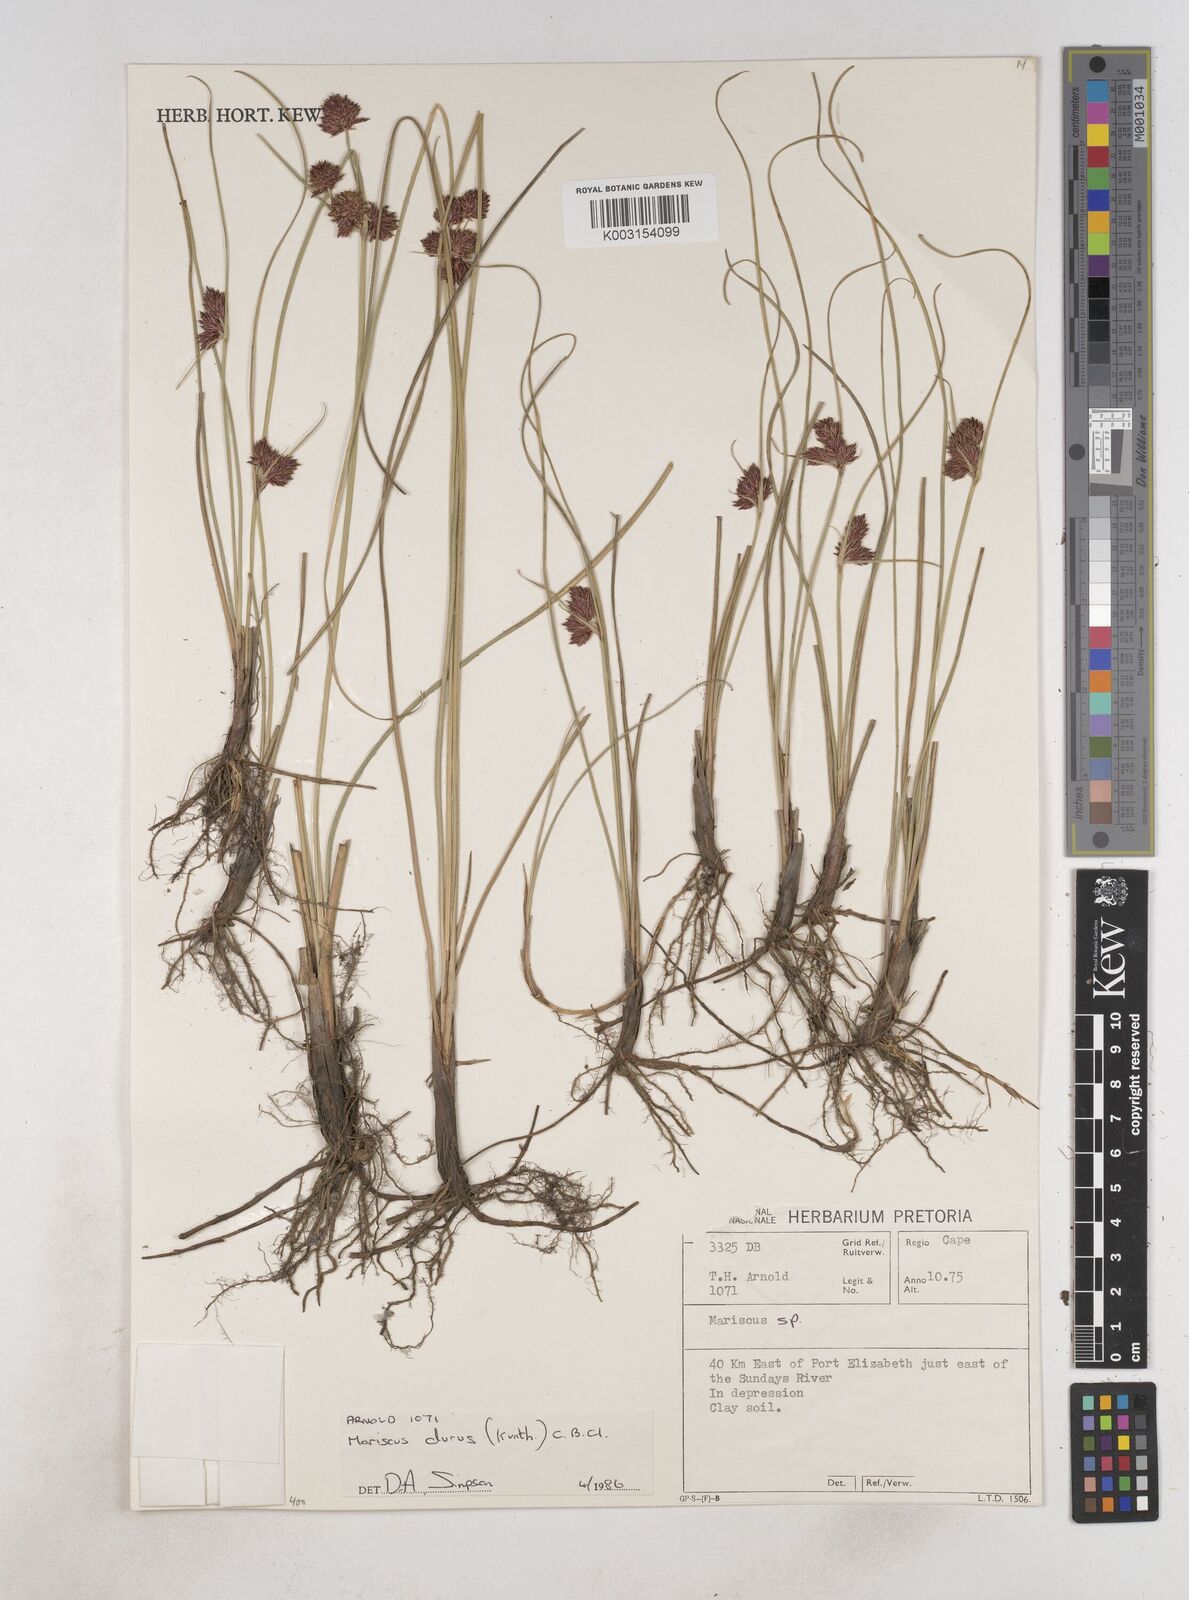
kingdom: Plantae
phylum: Tracheophyta
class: Liliopsida
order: Poales
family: Cyperaceae
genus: Cyperus
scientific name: Cyperus durus
